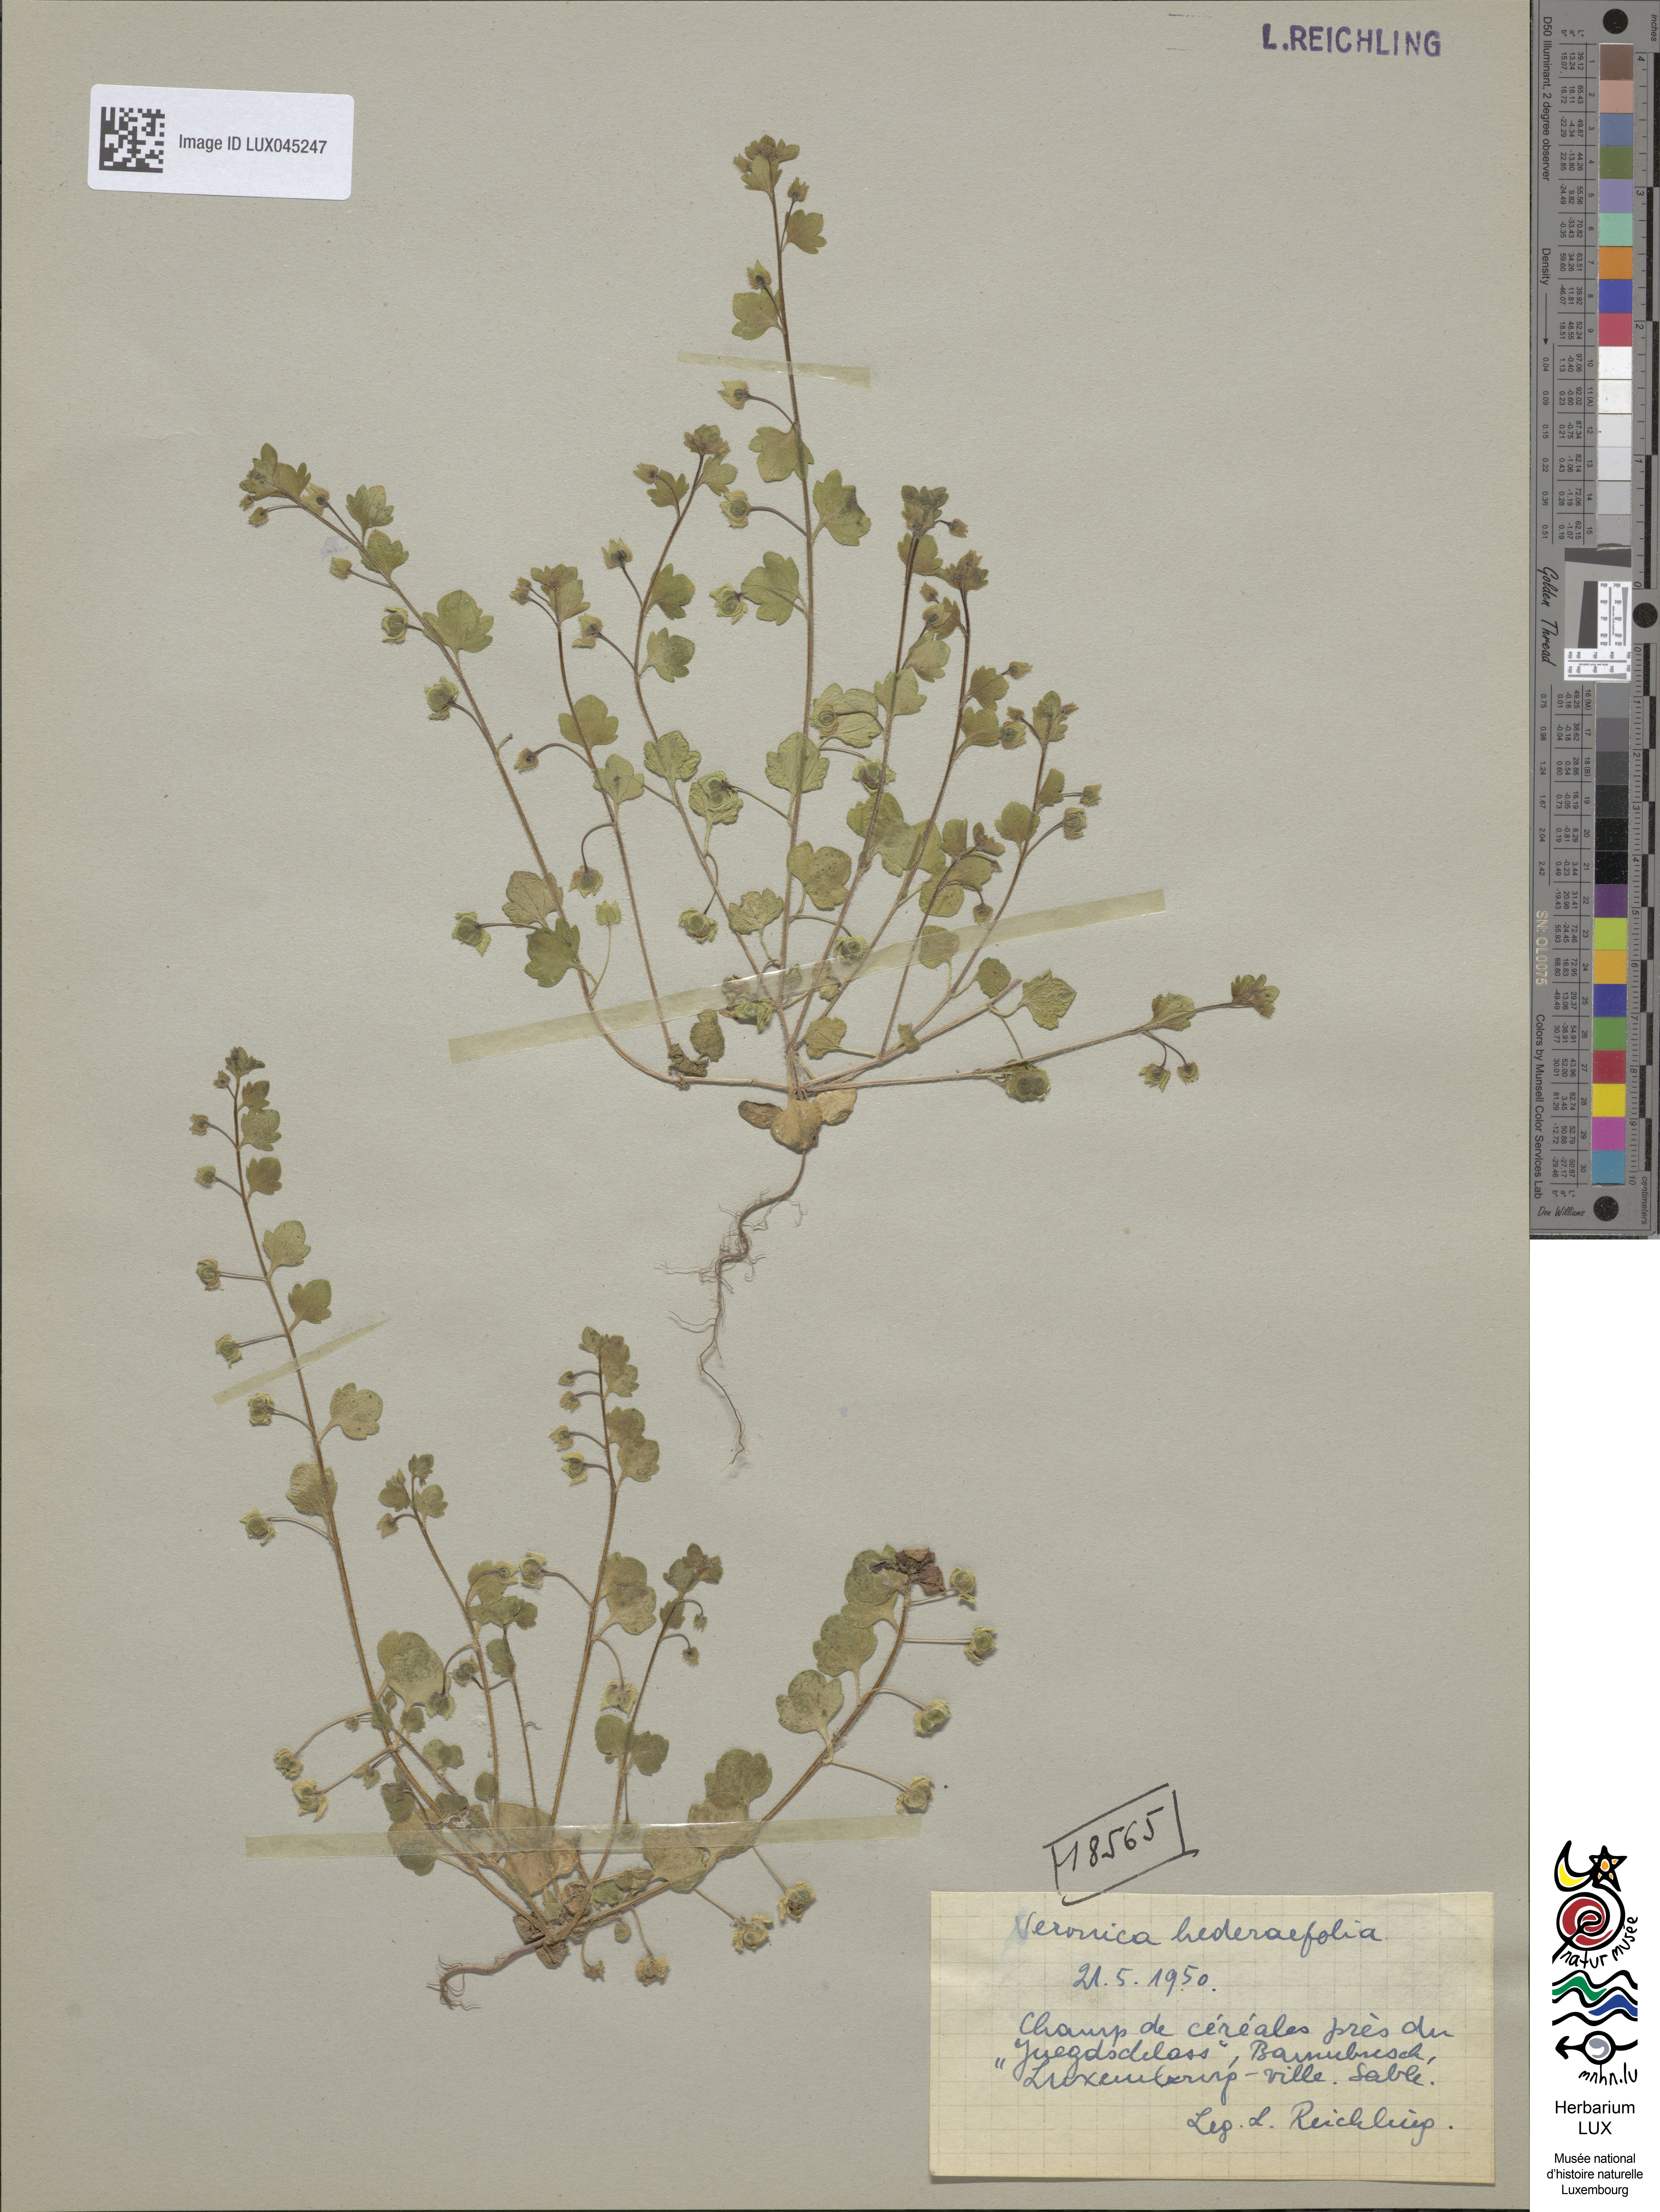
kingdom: Plantae
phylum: Tracheophyta
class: Magnoliopsida
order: Lamiales
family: Plantaginaceae
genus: Veronica
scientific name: Veronica hederifolia
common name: Ivy-leaved speedwell
